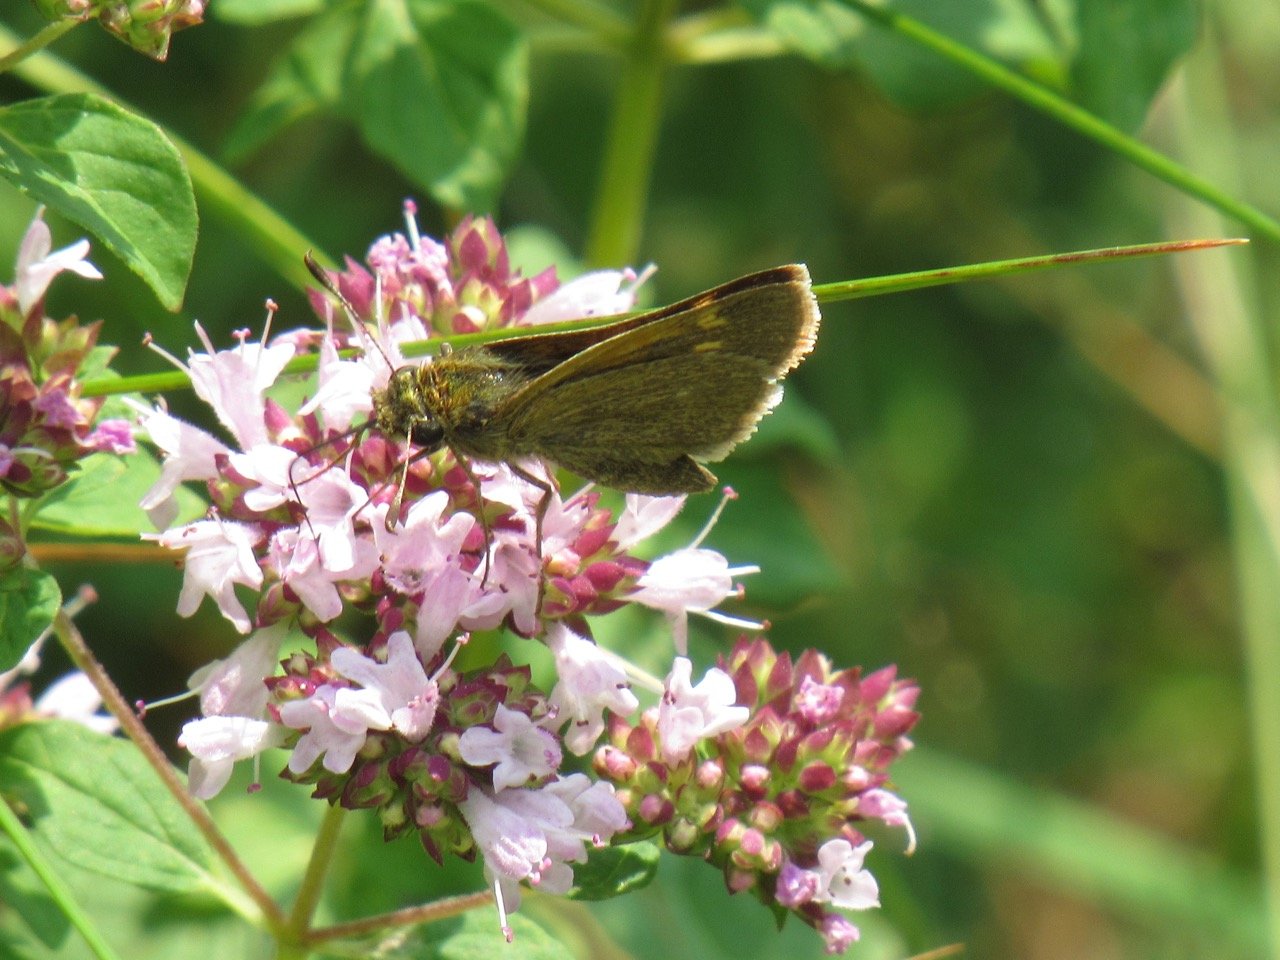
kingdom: Animalia
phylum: Arthropoda
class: Insecta
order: Lepidoptera
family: Hesperiidae
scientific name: Hesperiidae
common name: Skippers
